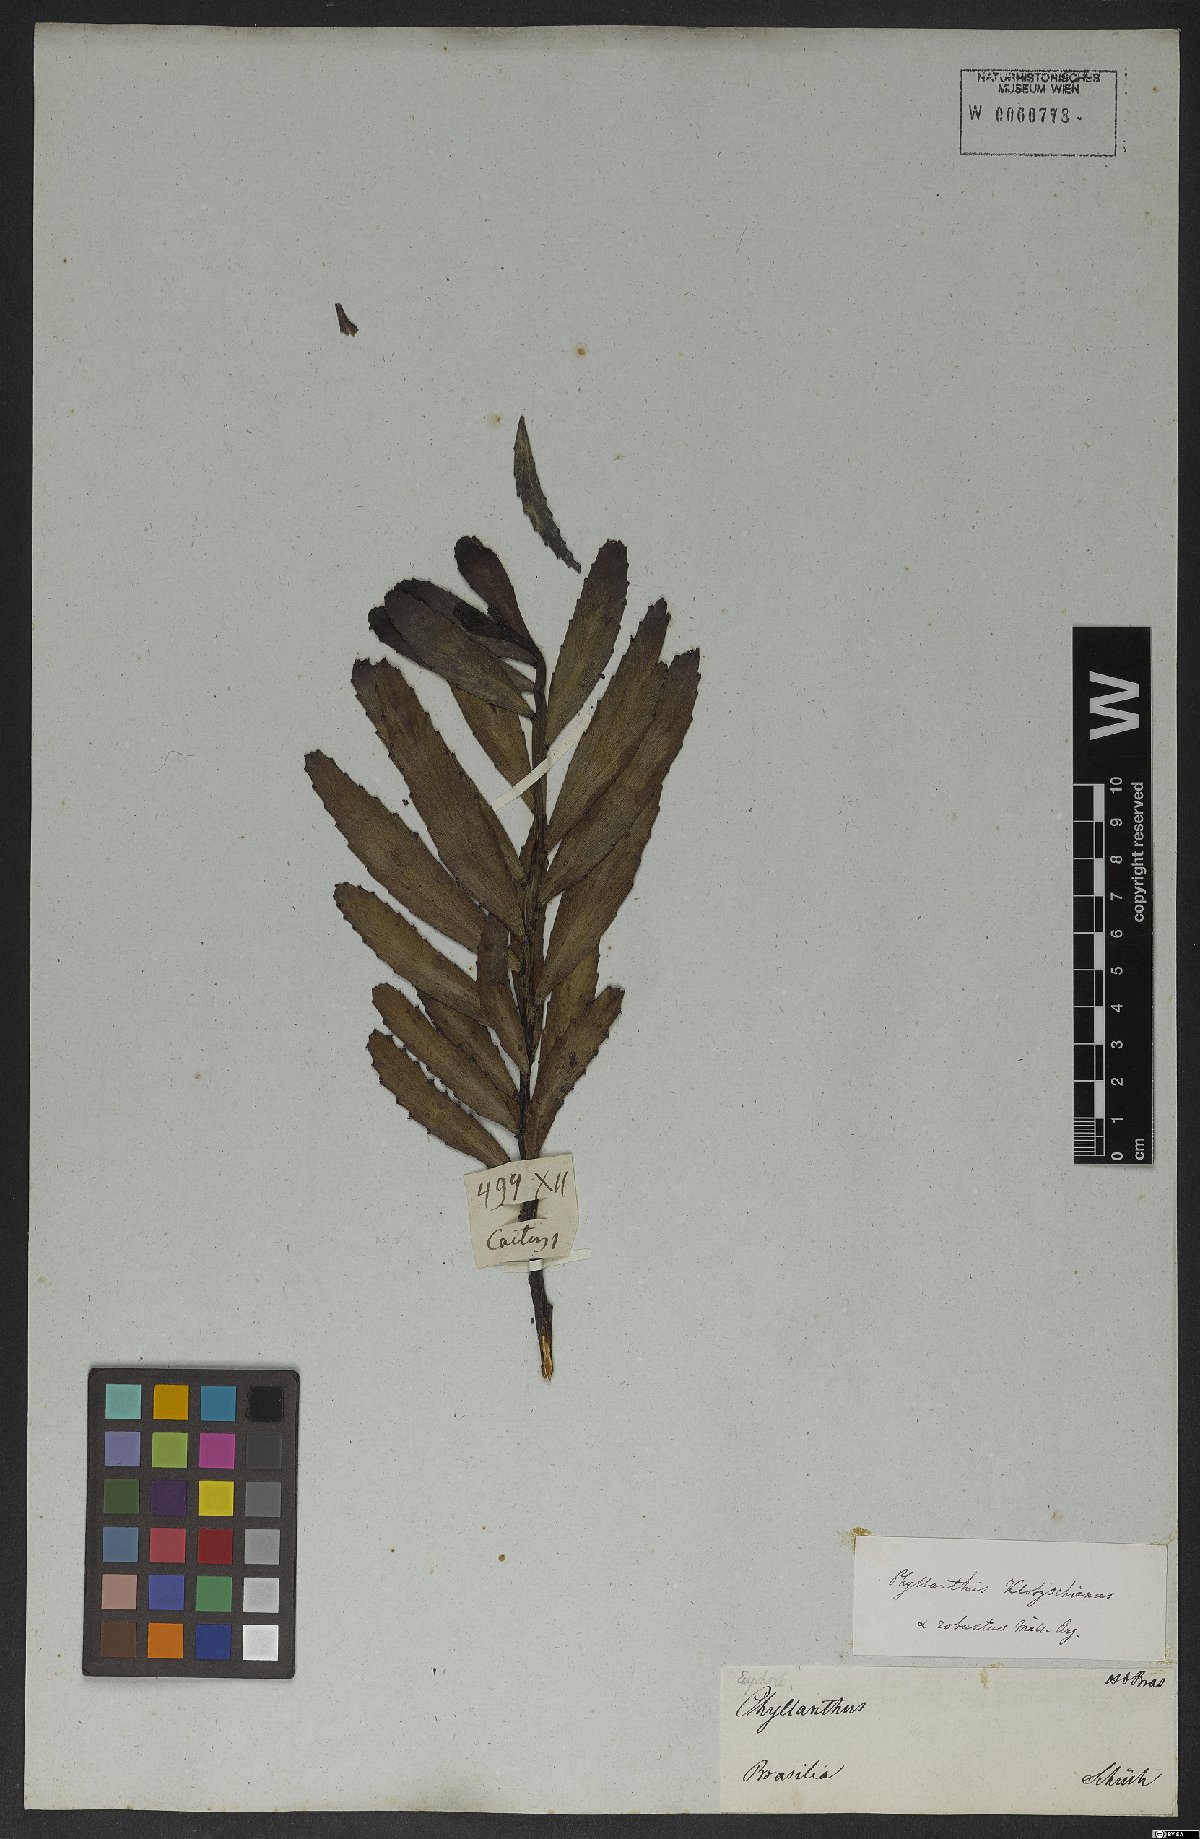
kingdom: Plantae
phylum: Tracheophyta
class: Magnoliopsida
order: Malpighiales
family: Phyllanthaceae
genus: Phyllanthus
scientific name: Phyllanthus robustus
